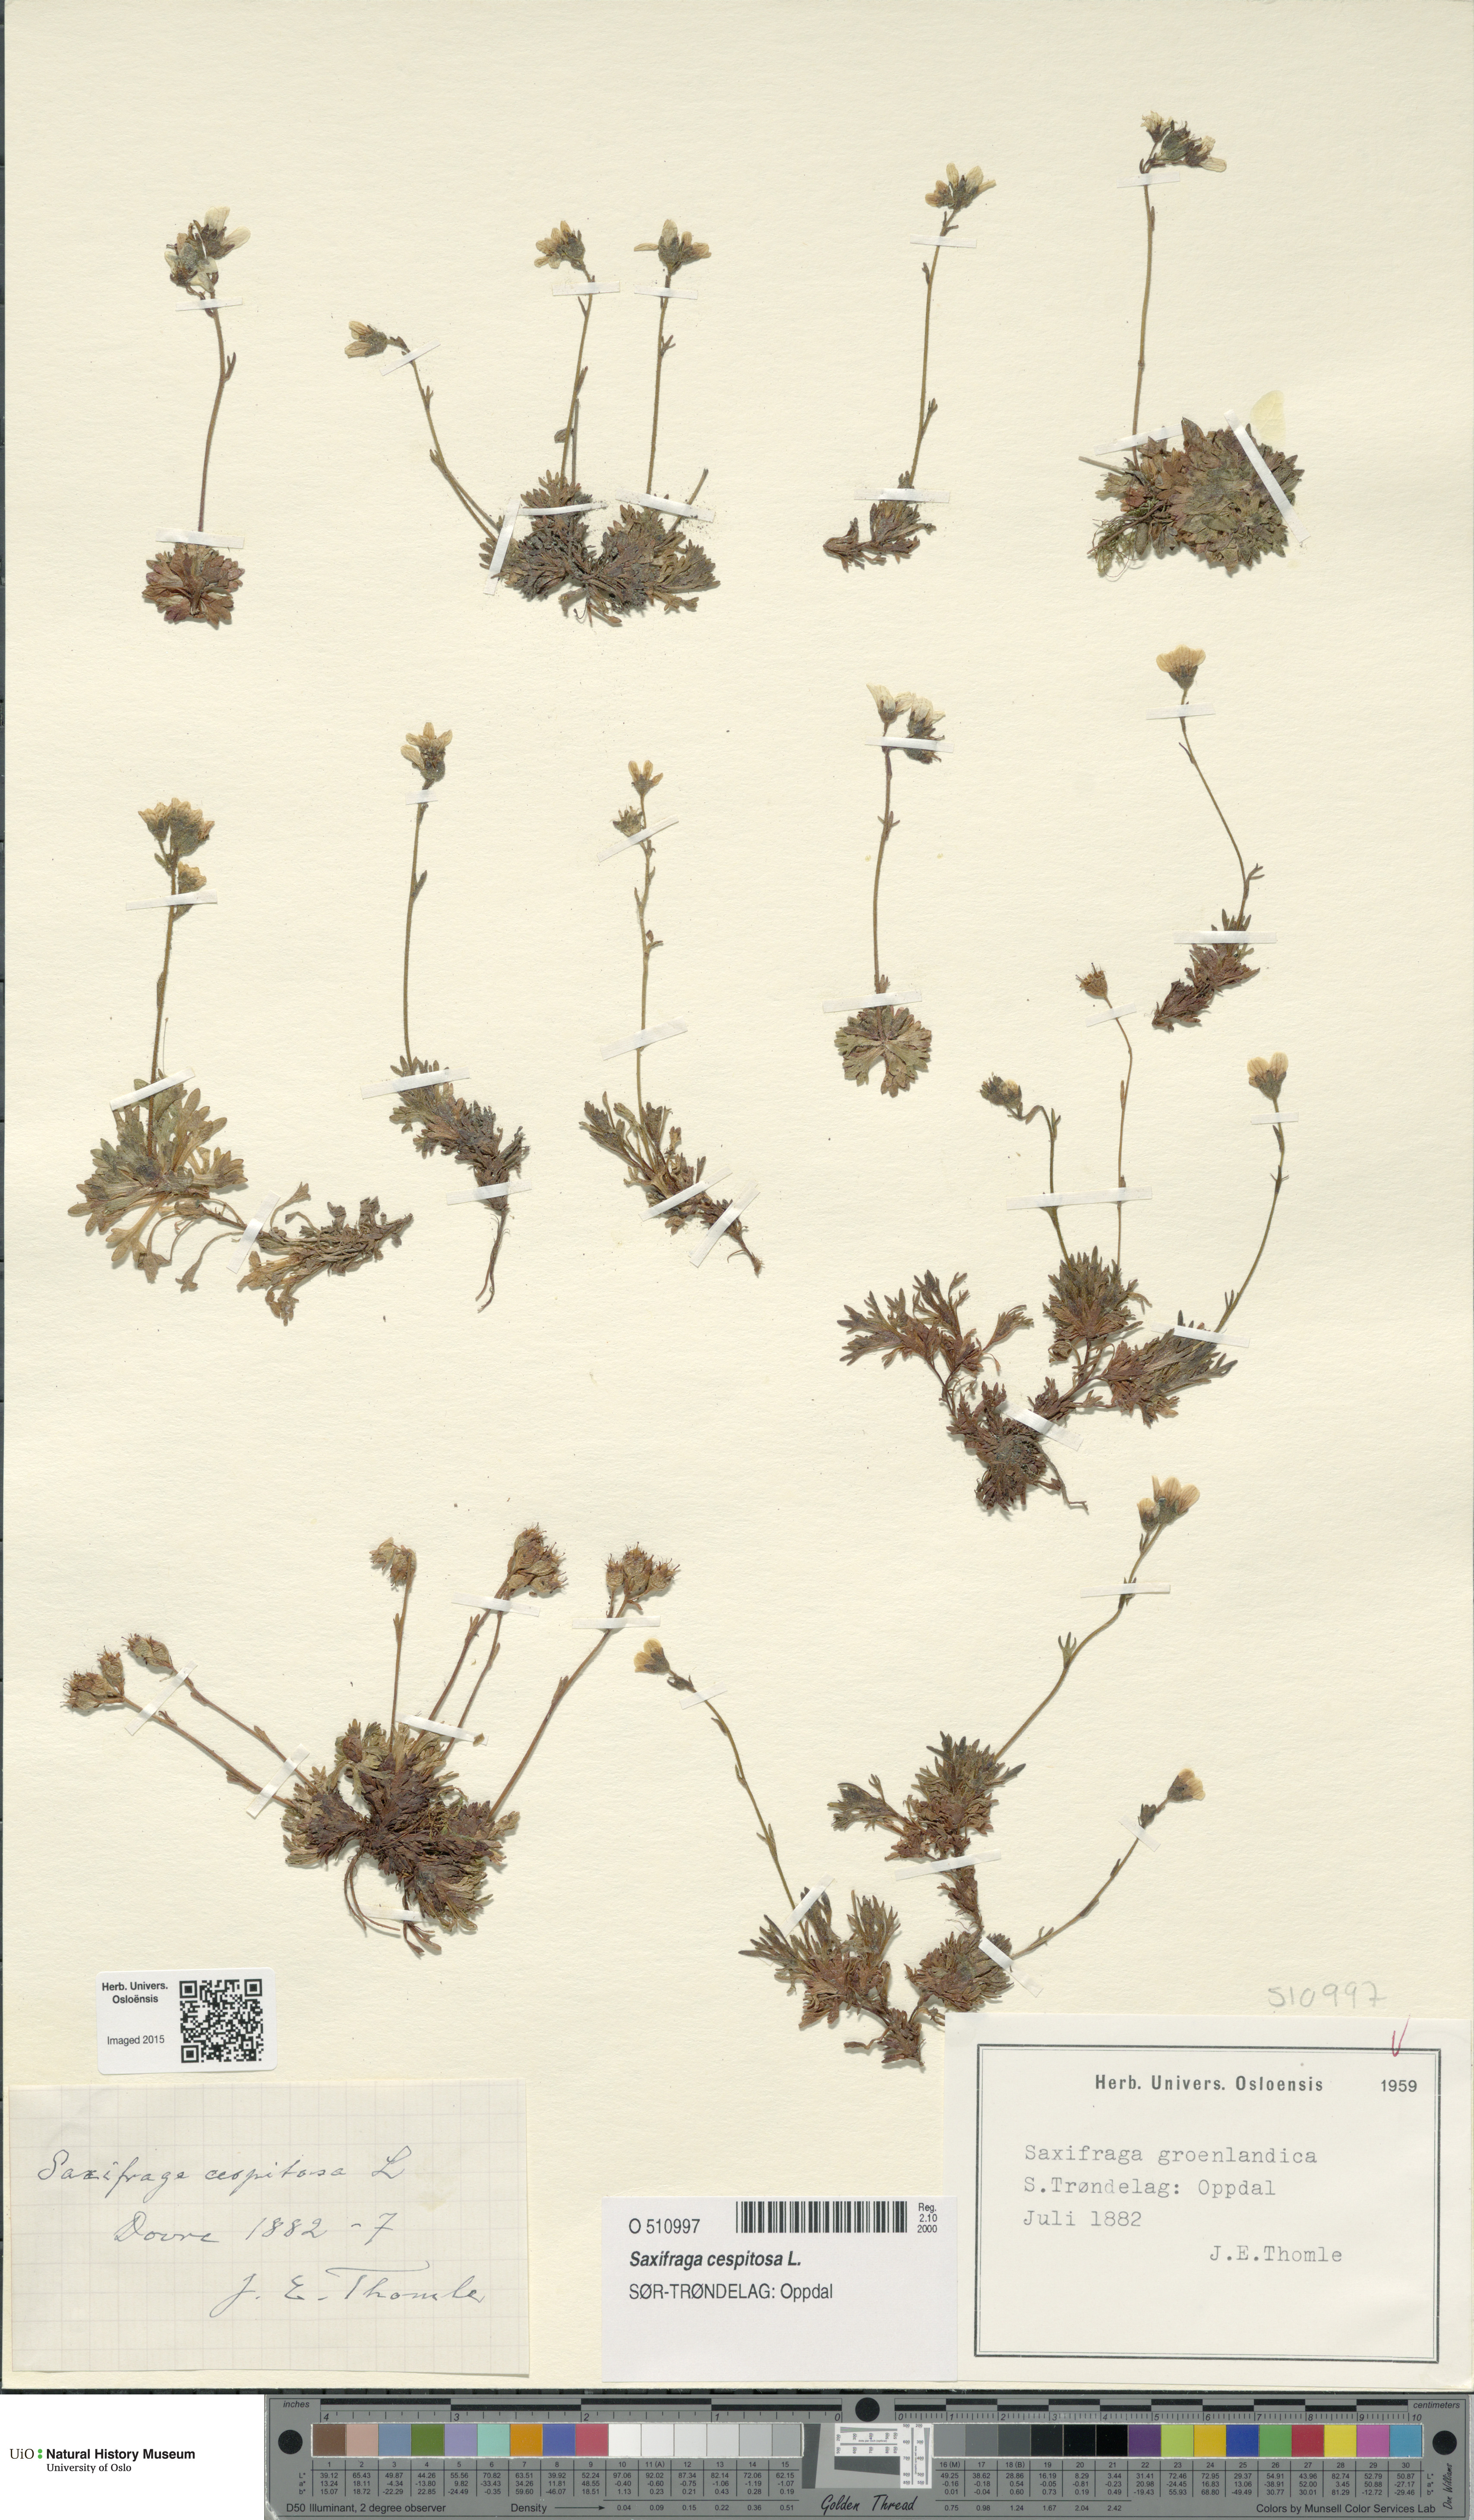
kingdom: Plantae
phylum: Tracheophyta
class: Magnoliopsida
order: Saxifragales
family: Saxifragaceae
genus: Saxifraga
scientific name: Saxifraga cespitosa
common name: Tufted saxifrage
